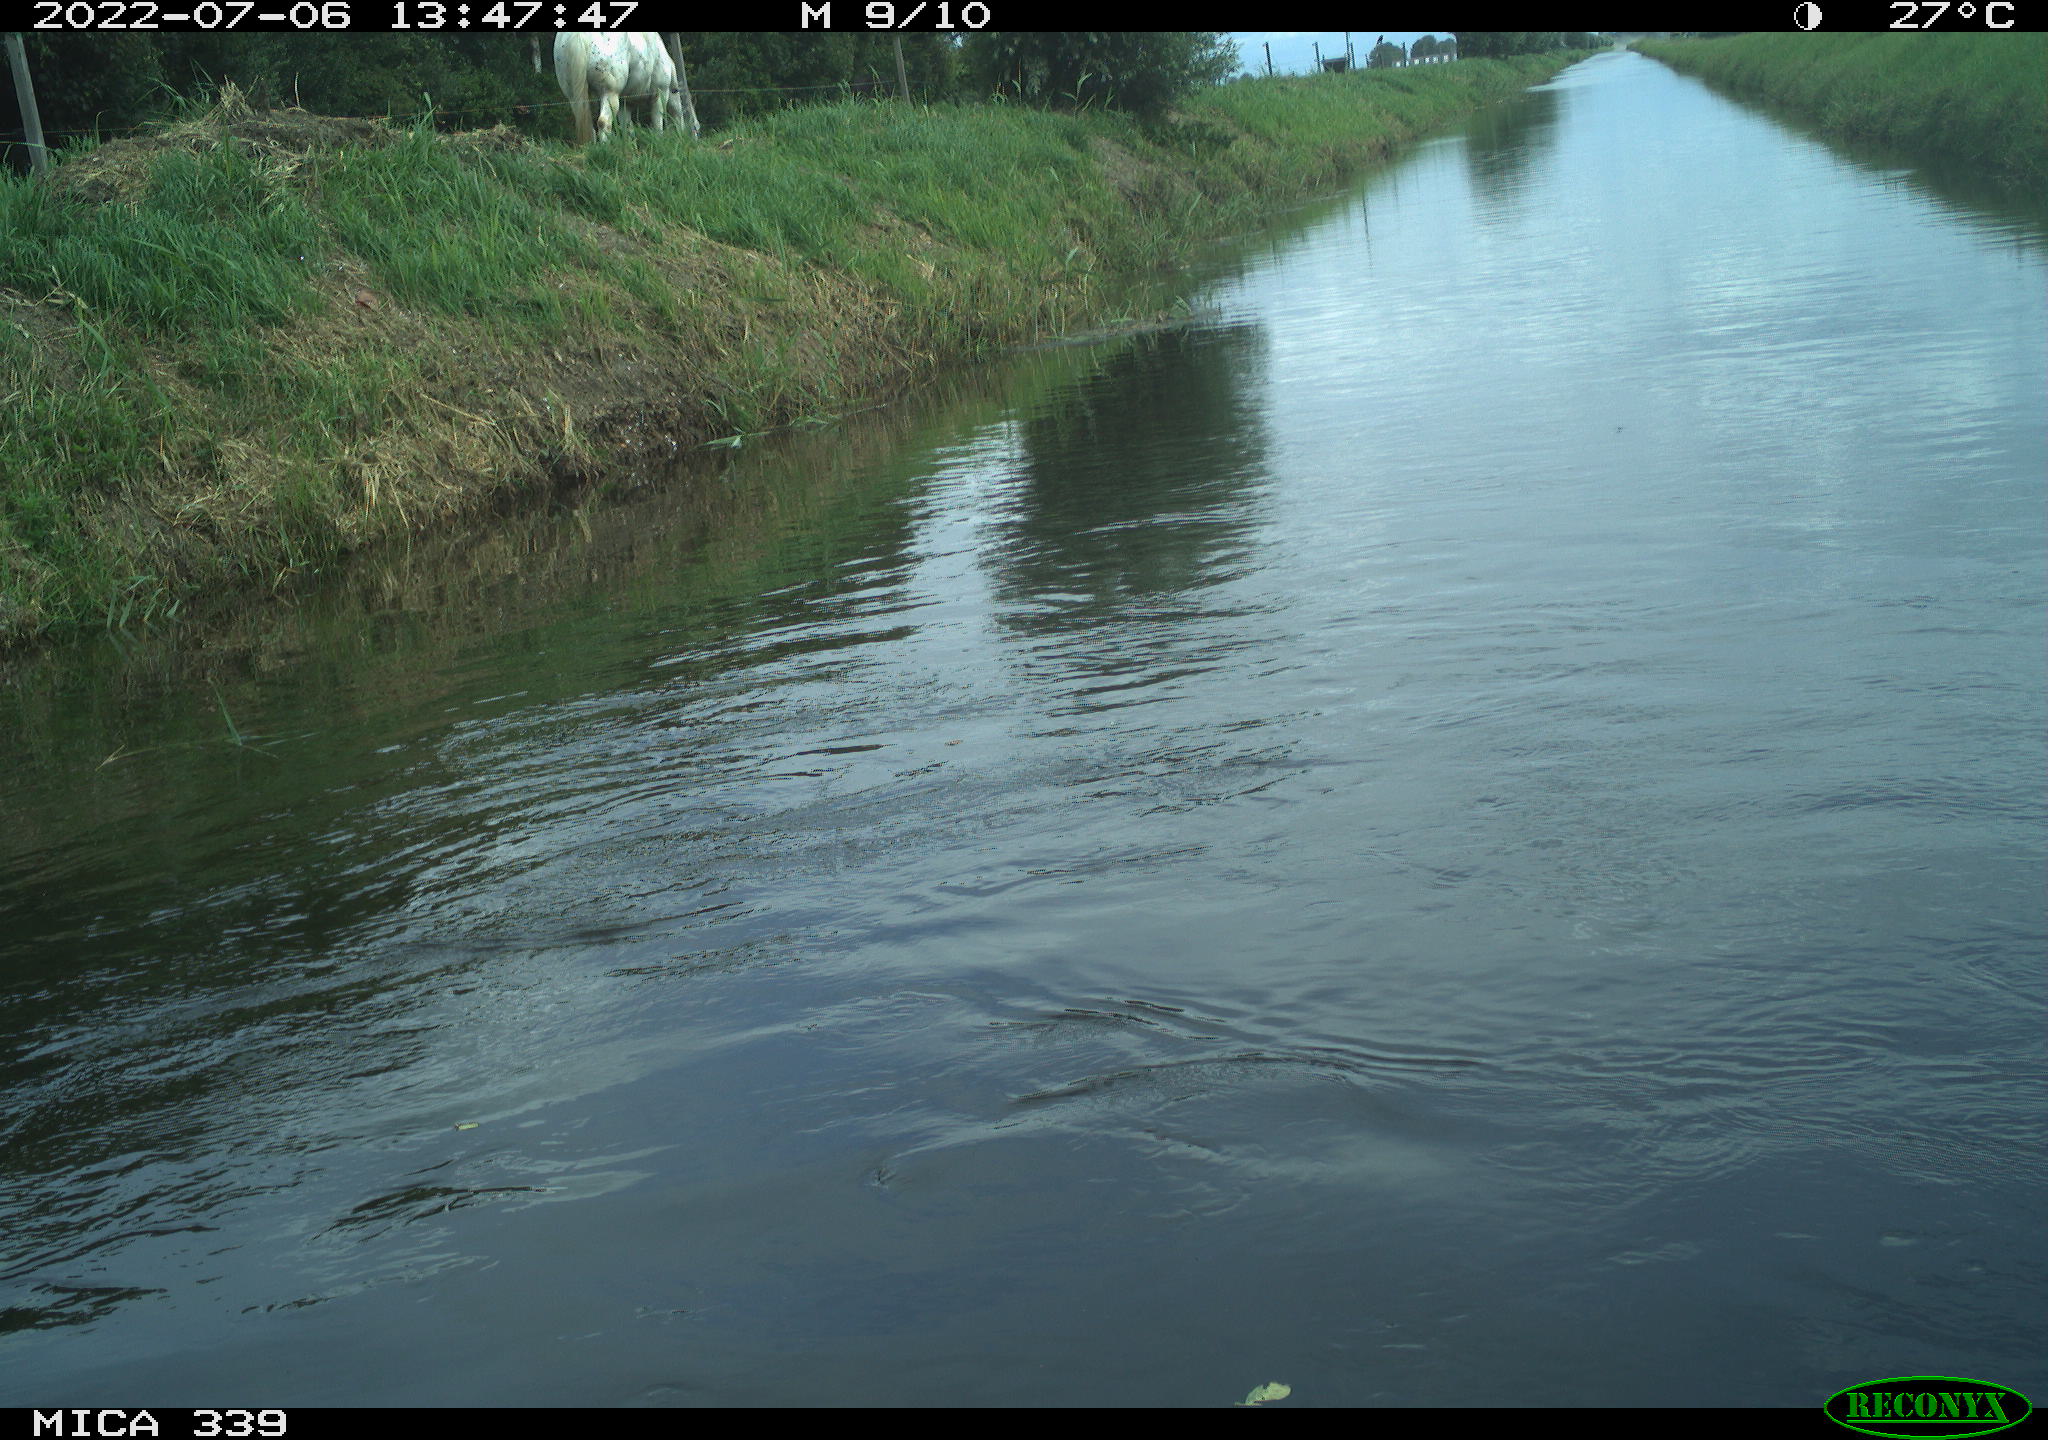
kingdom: Animalia
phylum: Chordata
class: Aves
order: Pelecaniformes
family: Ardeidae
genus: Ardea
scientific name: Ardea
